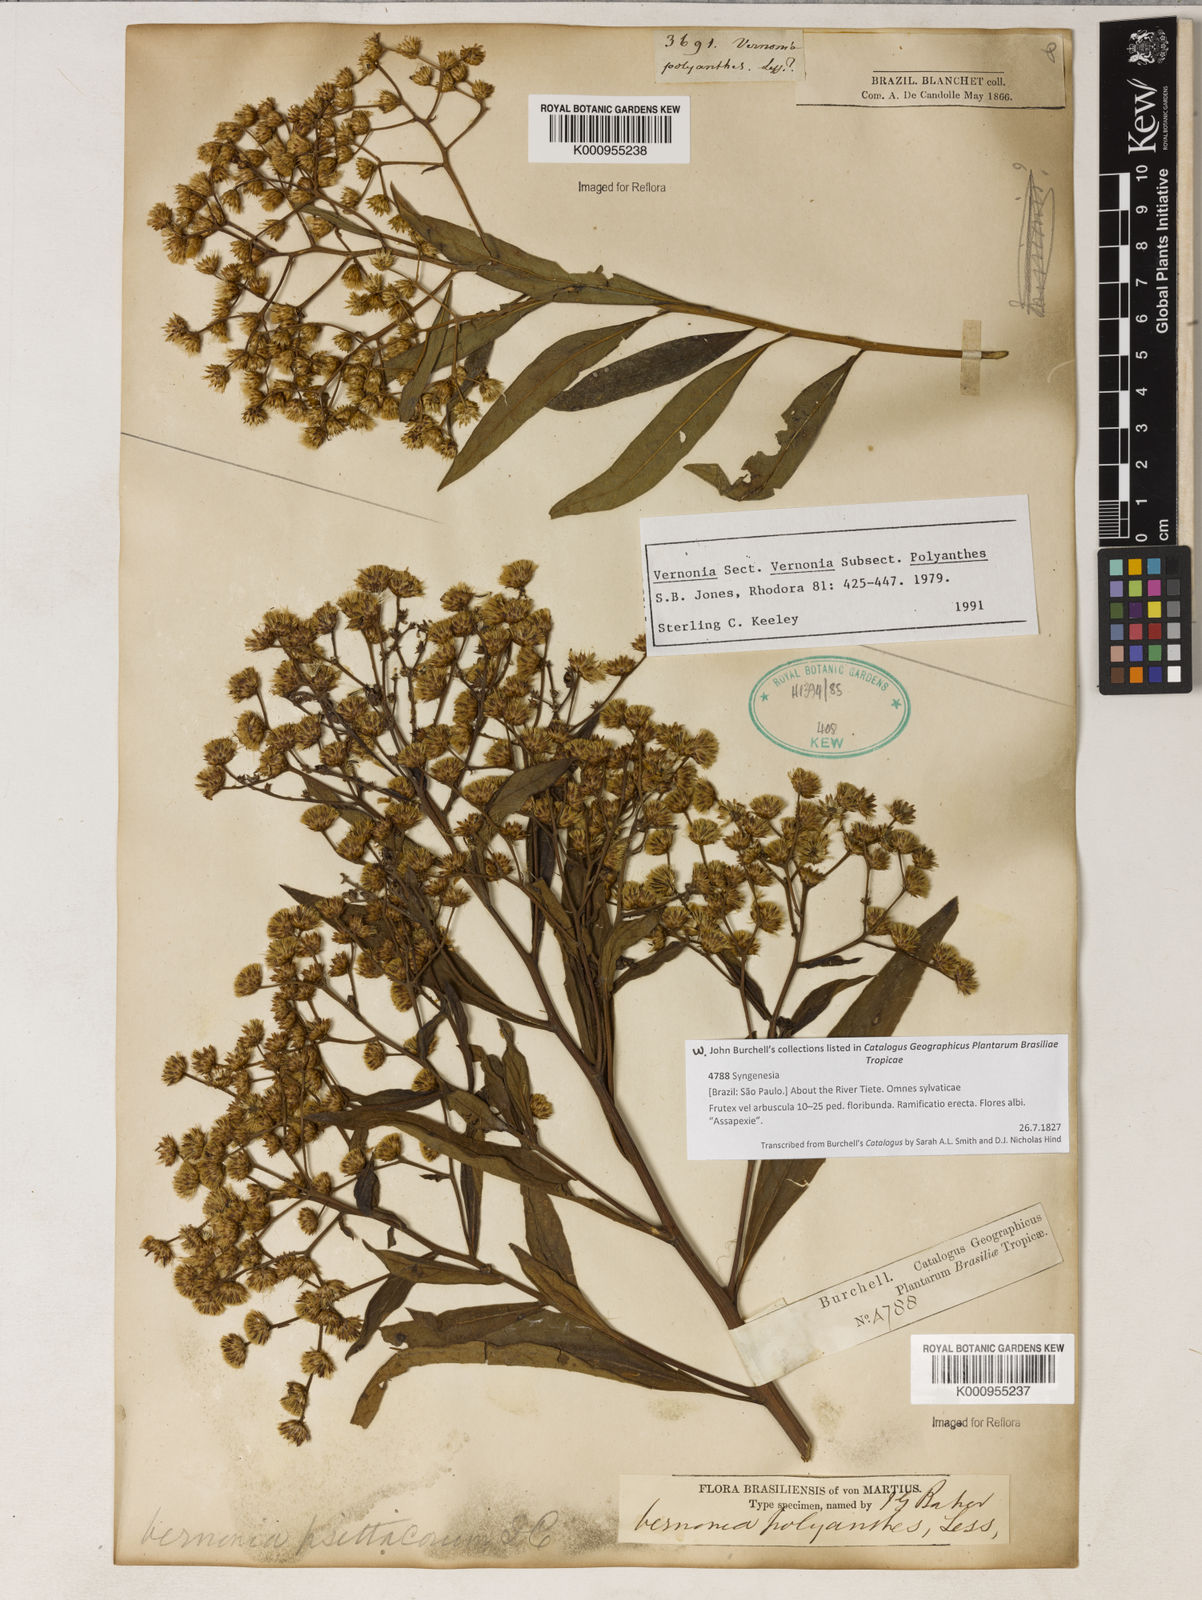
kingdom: Plantae
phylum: Tracheophyta
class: Magnoliopsida
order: Asterales
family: Asteraceae
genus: Vernonanthura
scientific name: Vernonanthura polyanthes
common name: Tree aster
